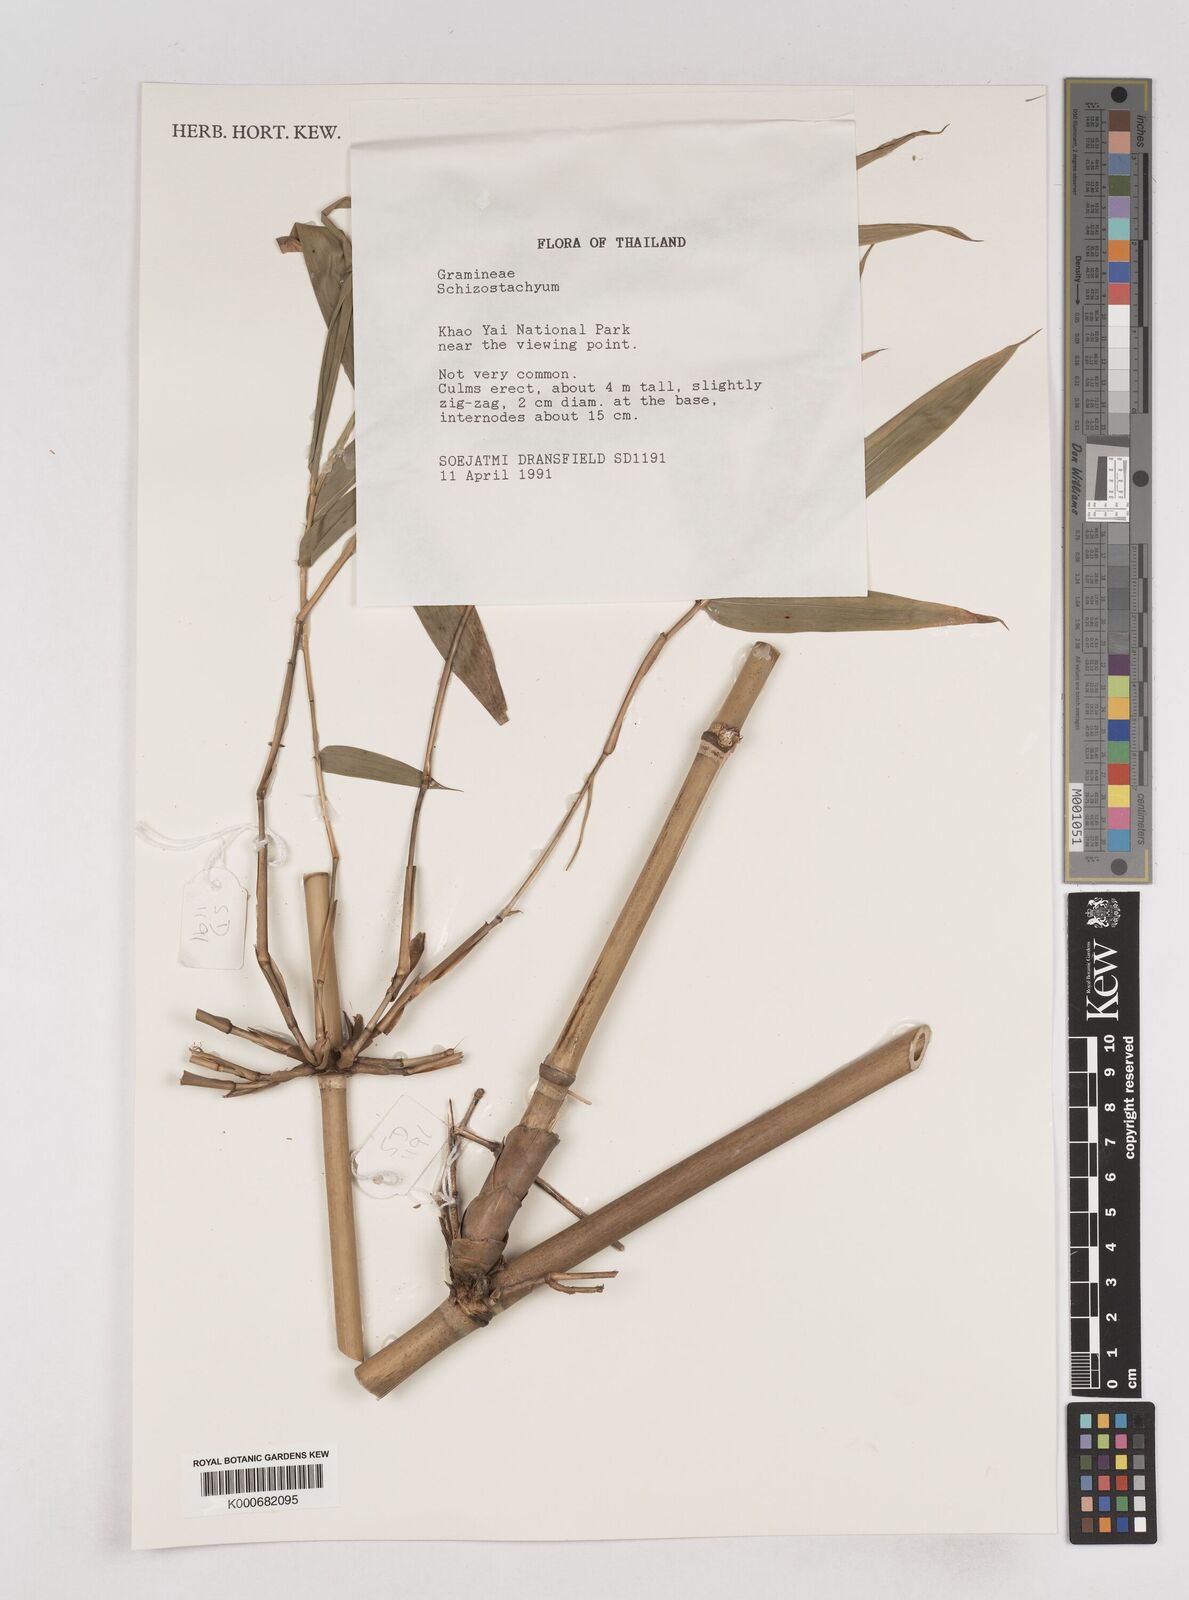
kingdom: Plantae
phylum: Tracheophyta
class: Liliopsida
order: Poales
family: Poaceae
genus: Schizostachyum
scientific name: Schizostachyum
